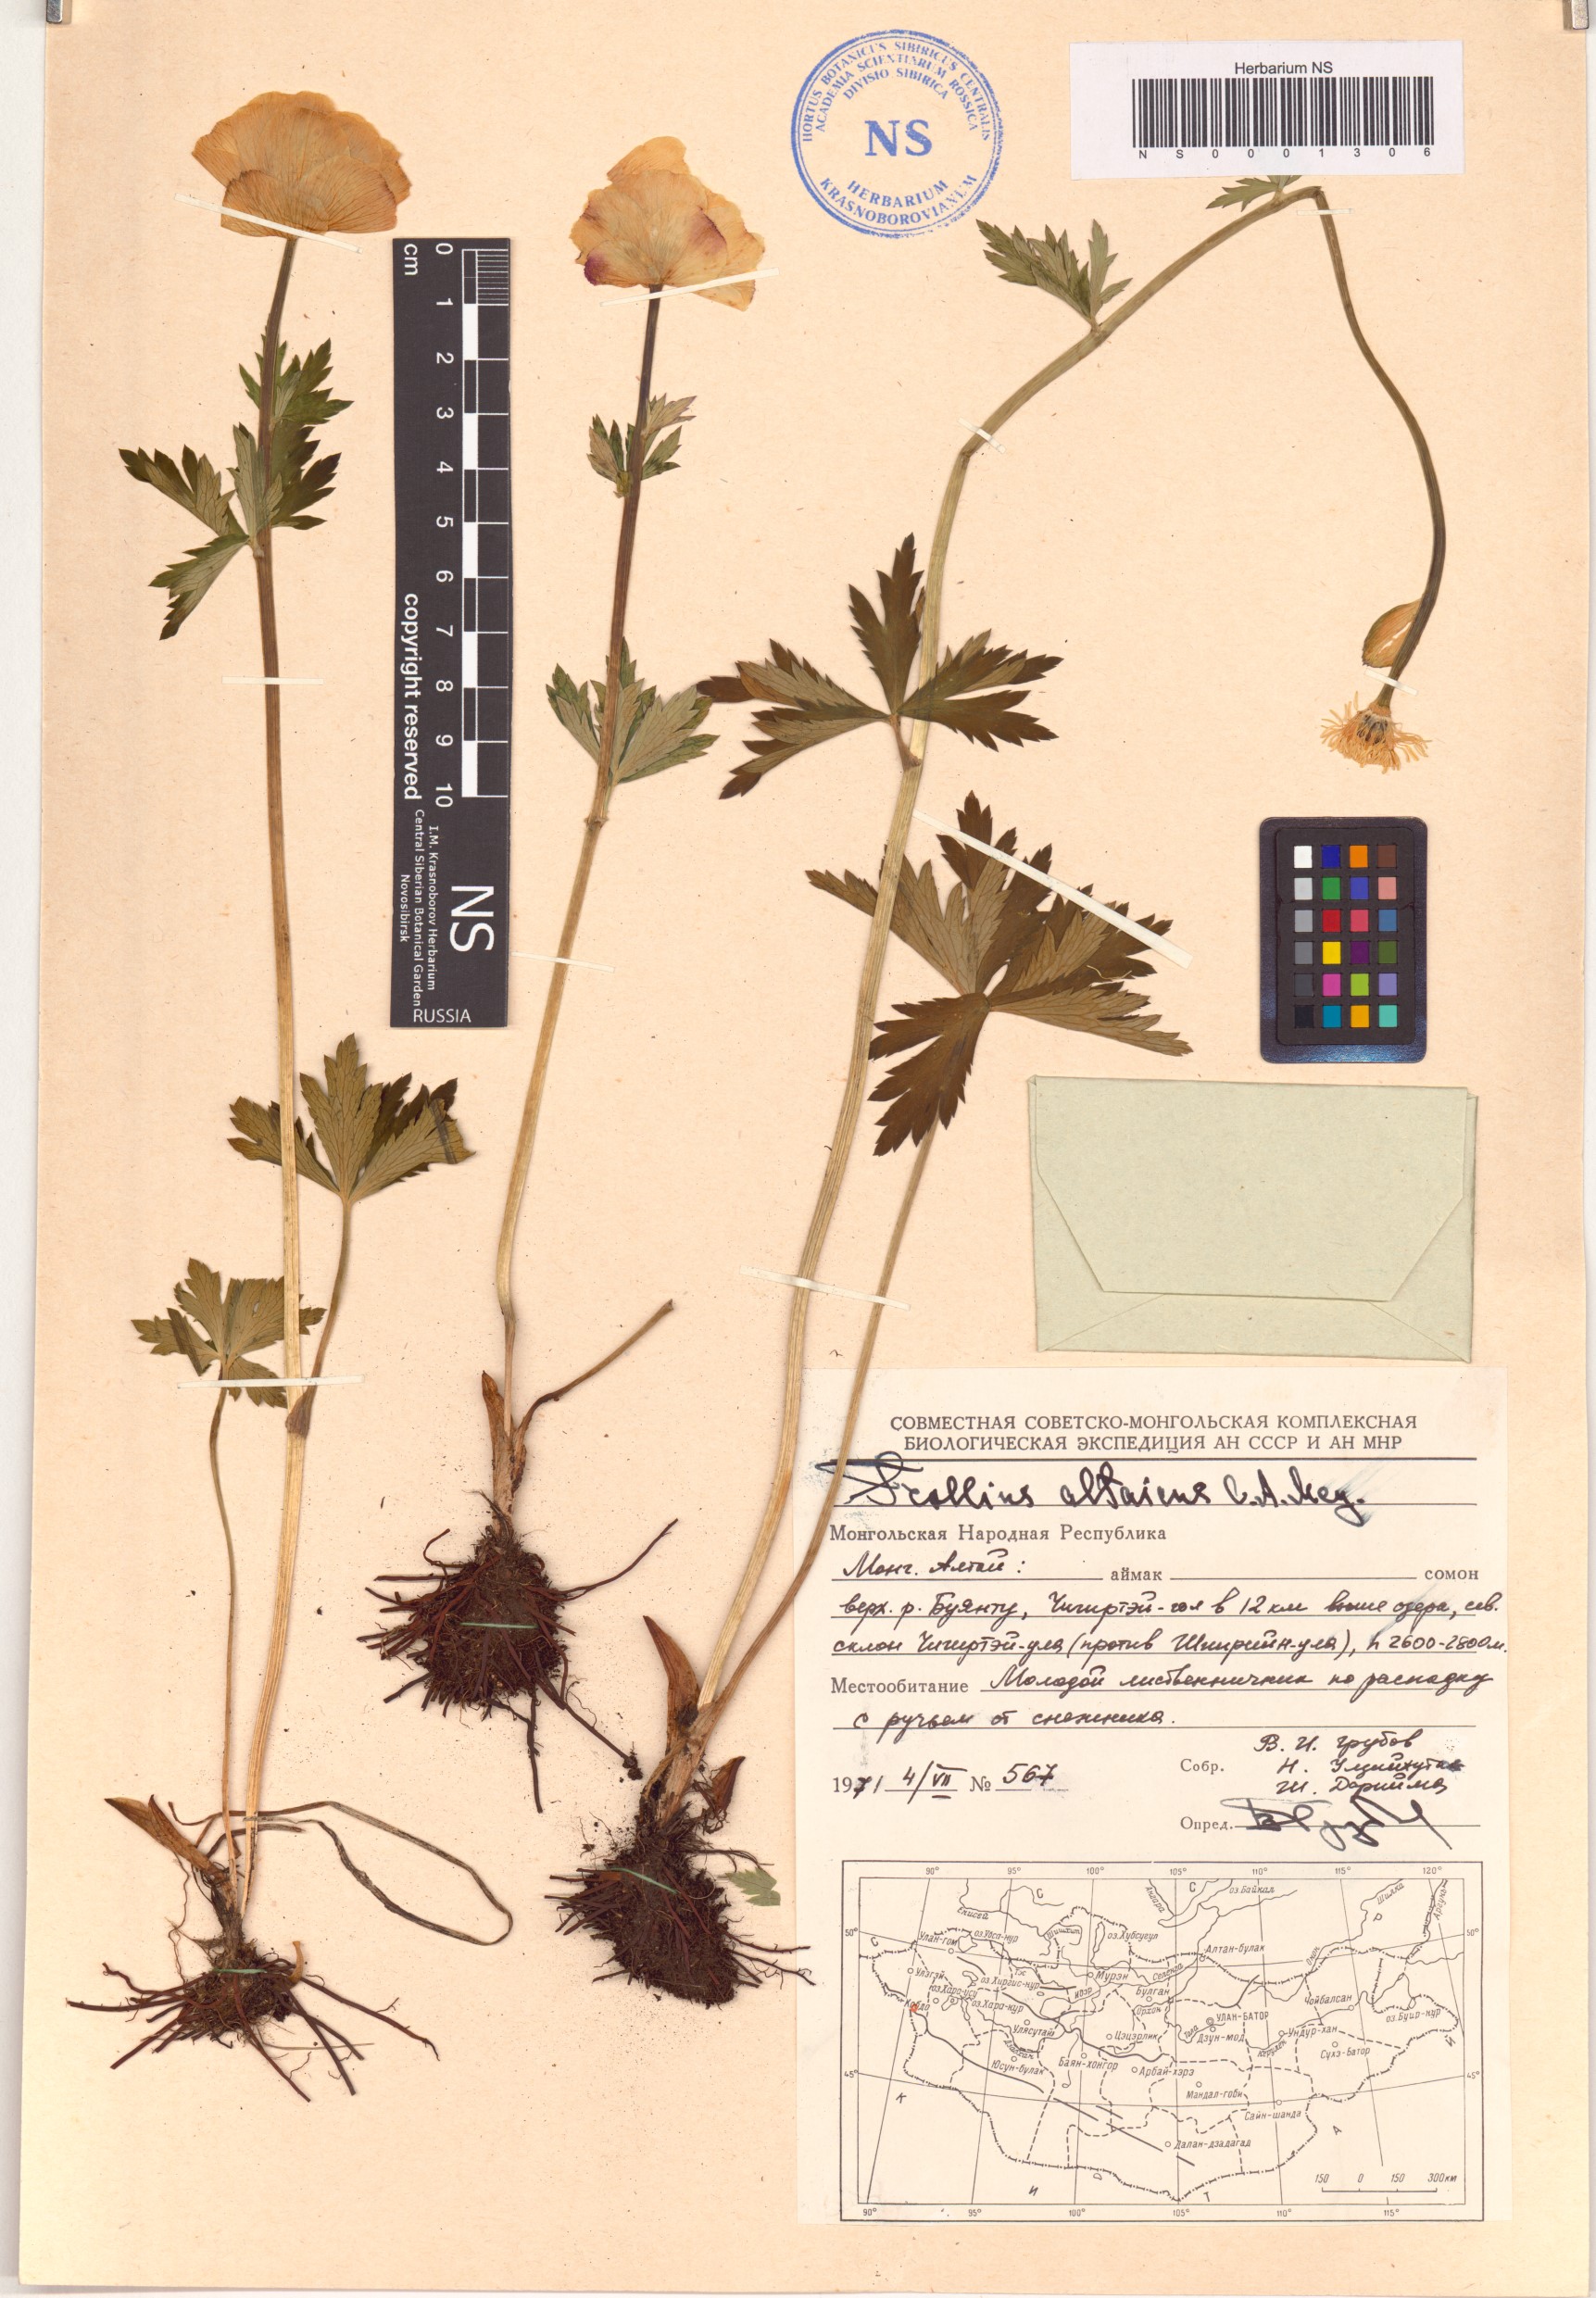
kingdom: Plantae
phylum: Tracheophyta
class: Magnoliopsida
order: Ranunculales
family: Ranunculaceae
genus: Trollius
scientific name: Trollius altaicus
